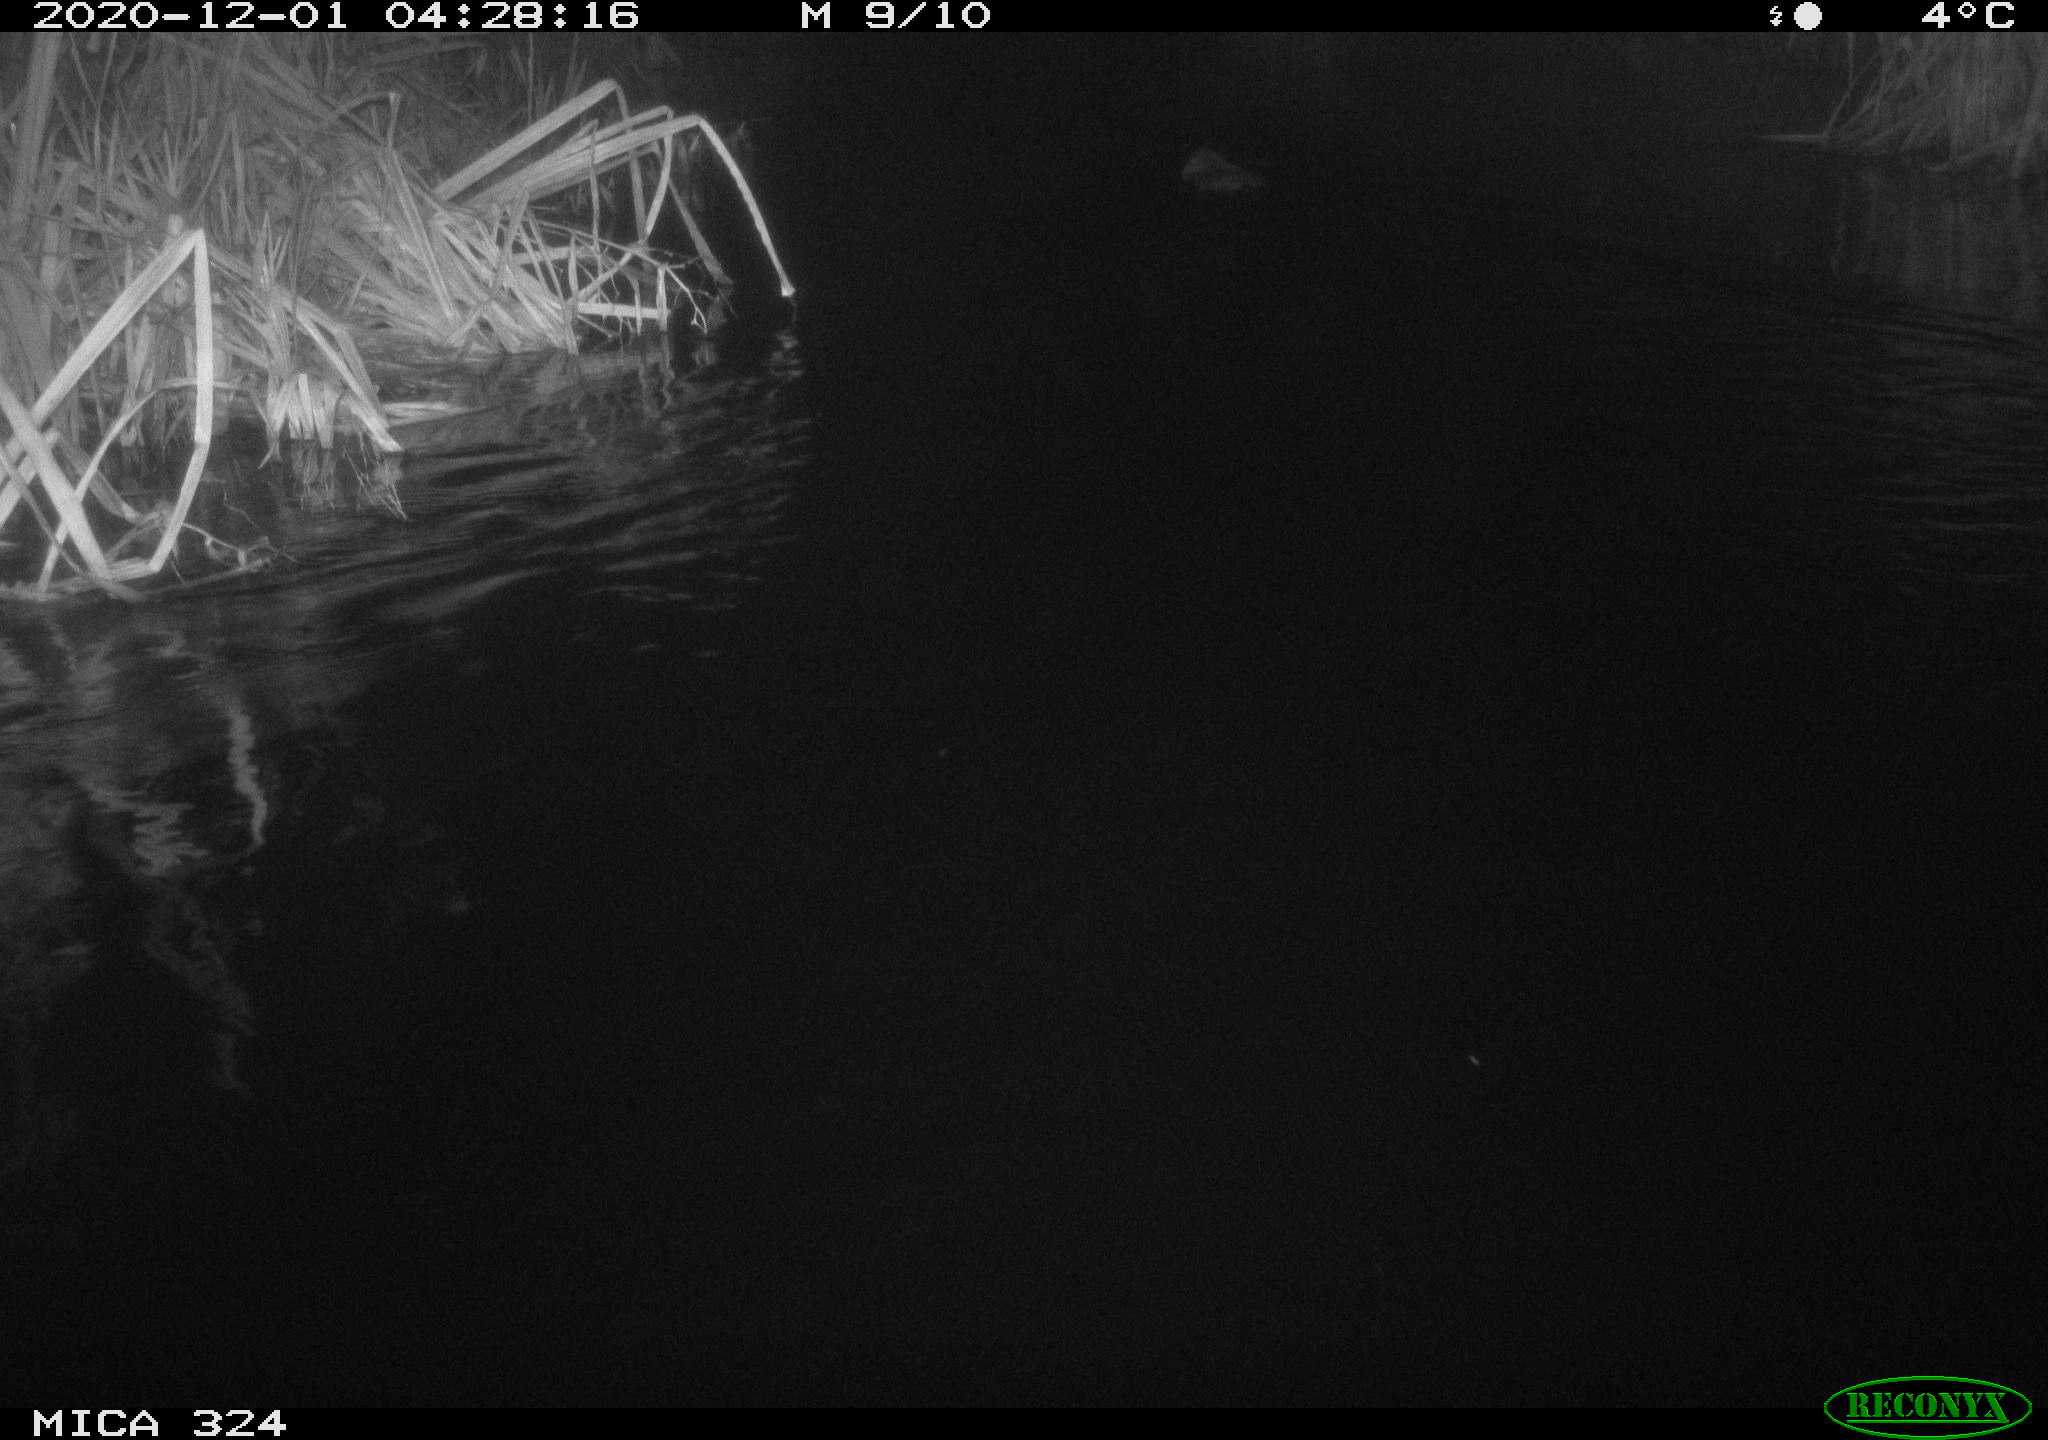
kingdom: Animalia
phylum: Chordata
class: Mammalia
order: Rodentia
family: Myocastoridae
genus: Myocastor
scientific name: Myocastor coypus
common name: Coypu
